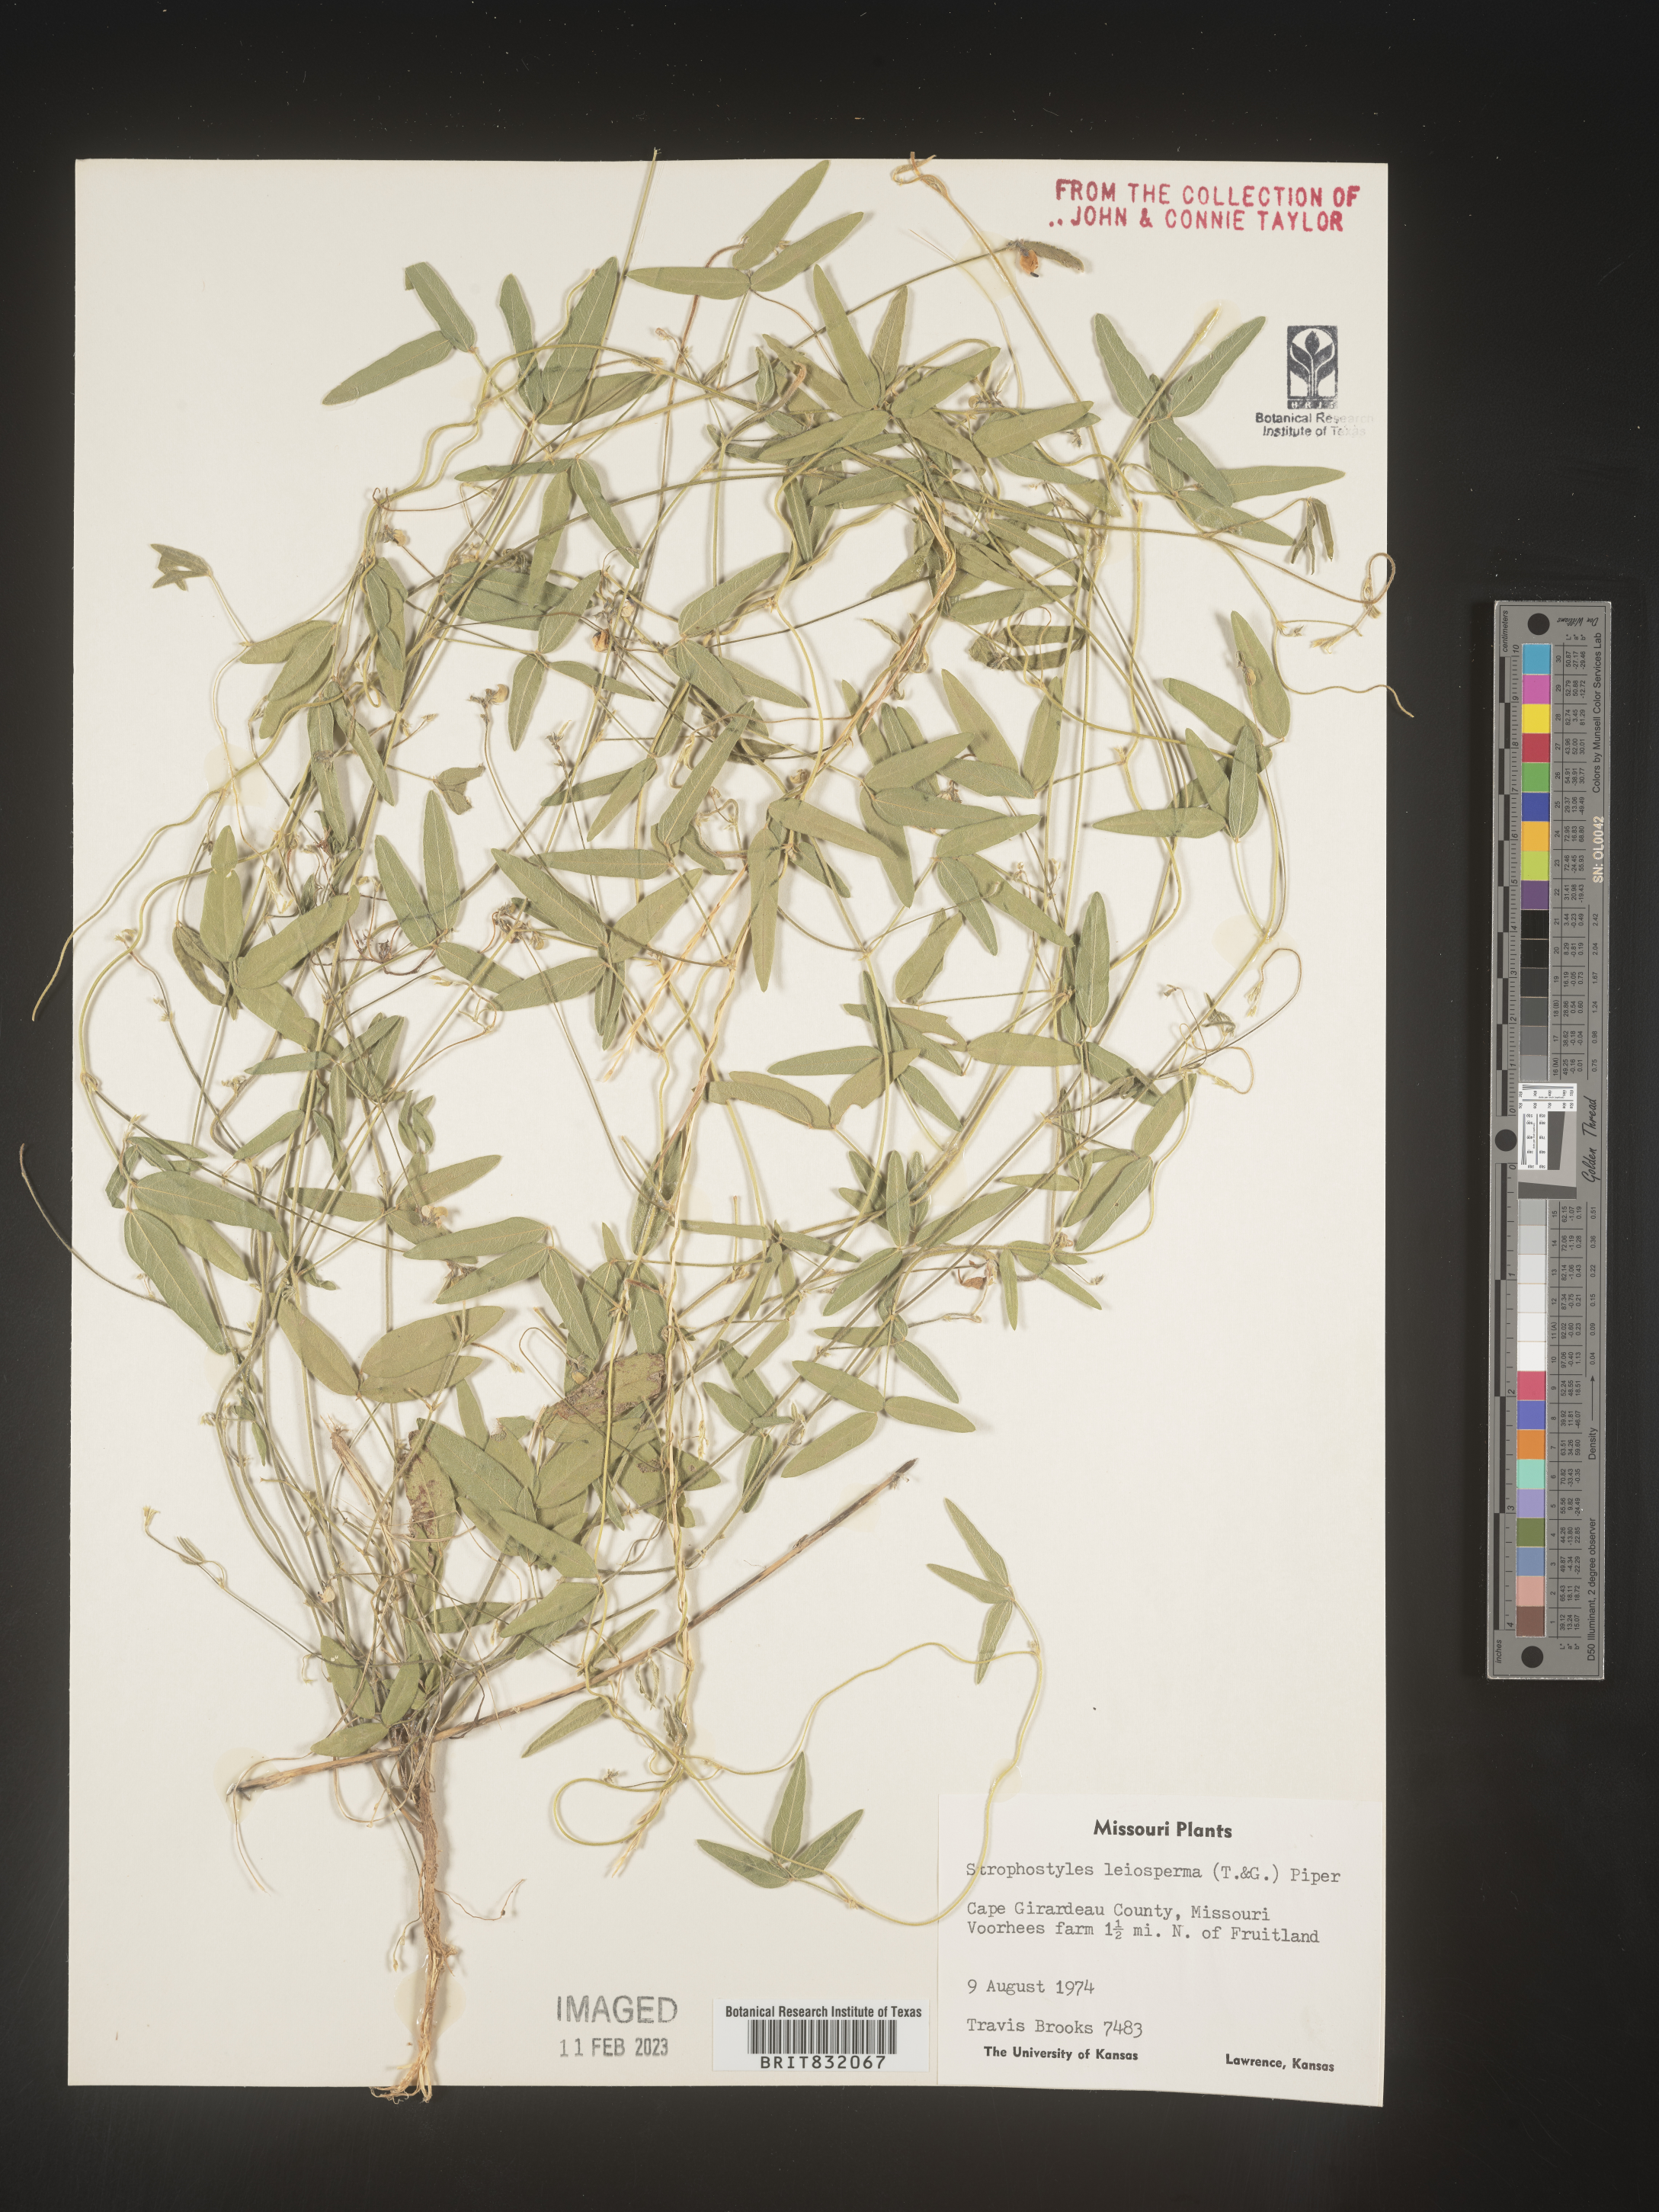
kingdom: Plantae
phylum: Tracheophyta
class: Magnoliopsida
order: Fabales
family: Fabaceae
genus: Strophostyles
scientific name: Strophostyles leiosperma
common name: Smooth-seed wild bean
